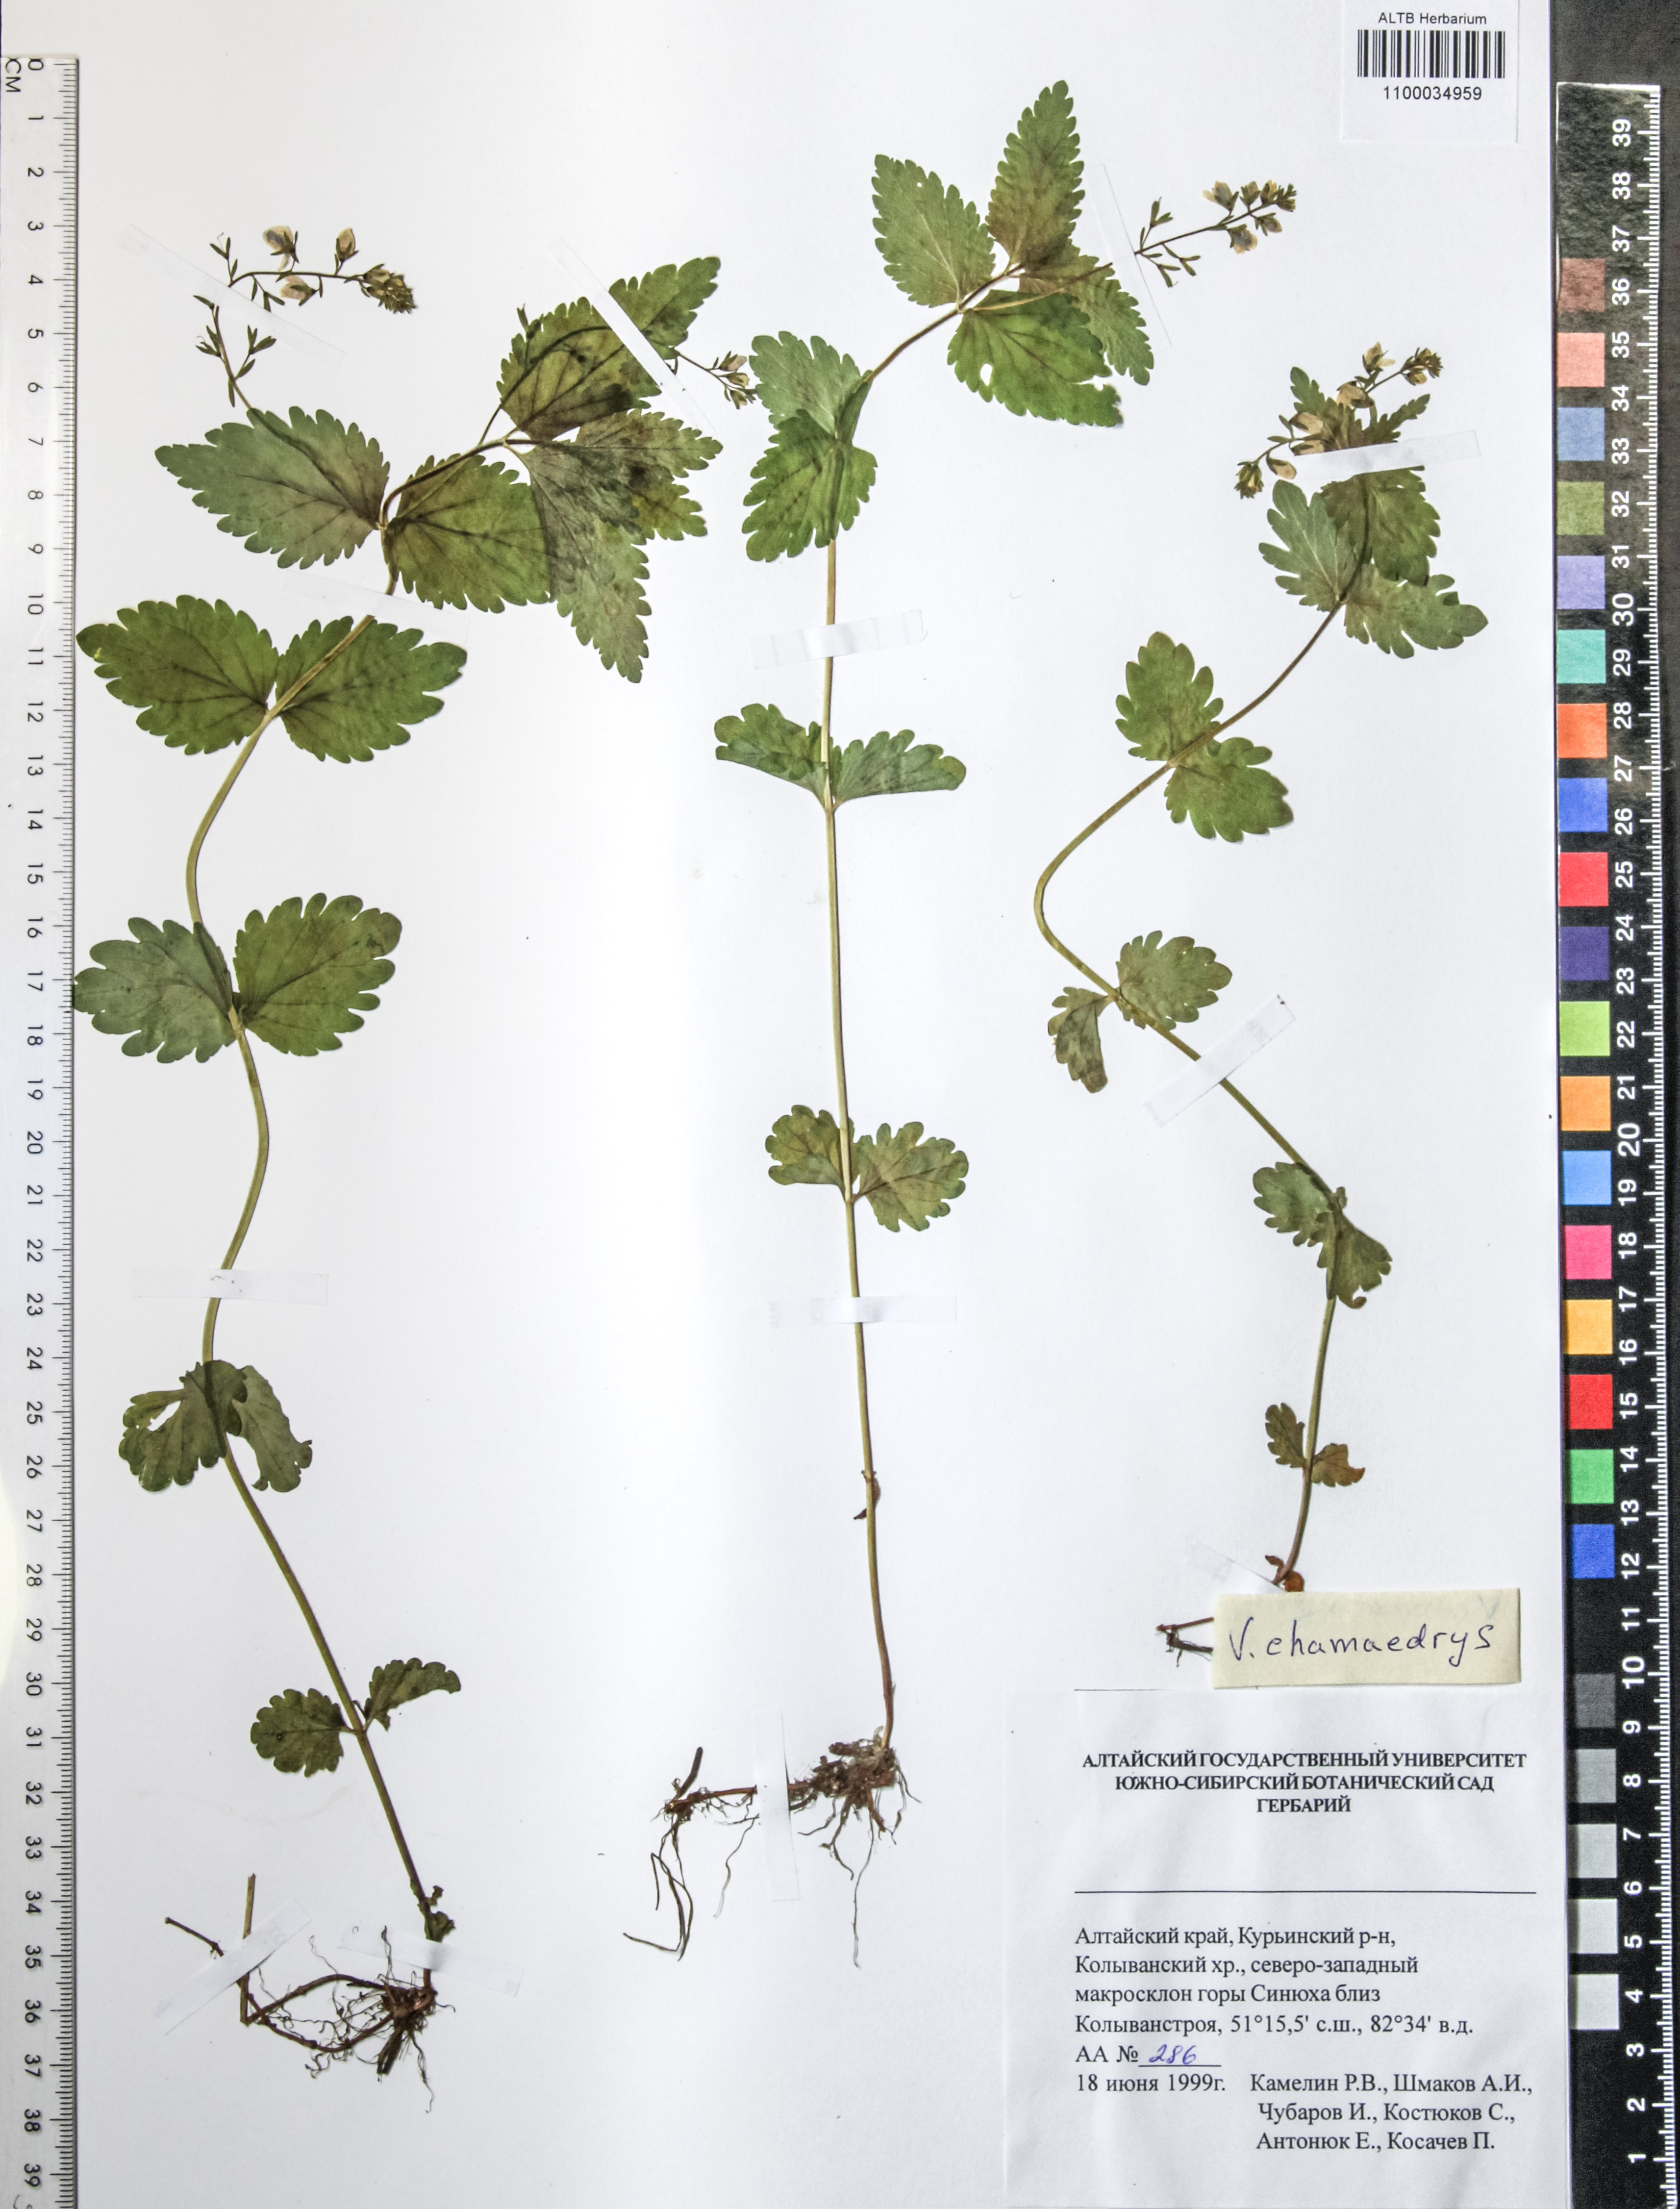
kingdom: Plantae
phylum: Tracheophyta
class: Magnoliopsida
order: Lamiales
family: Plantaginaceae
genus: Veronica
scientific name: Veronica chamaedrys
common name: Germander speedwell
